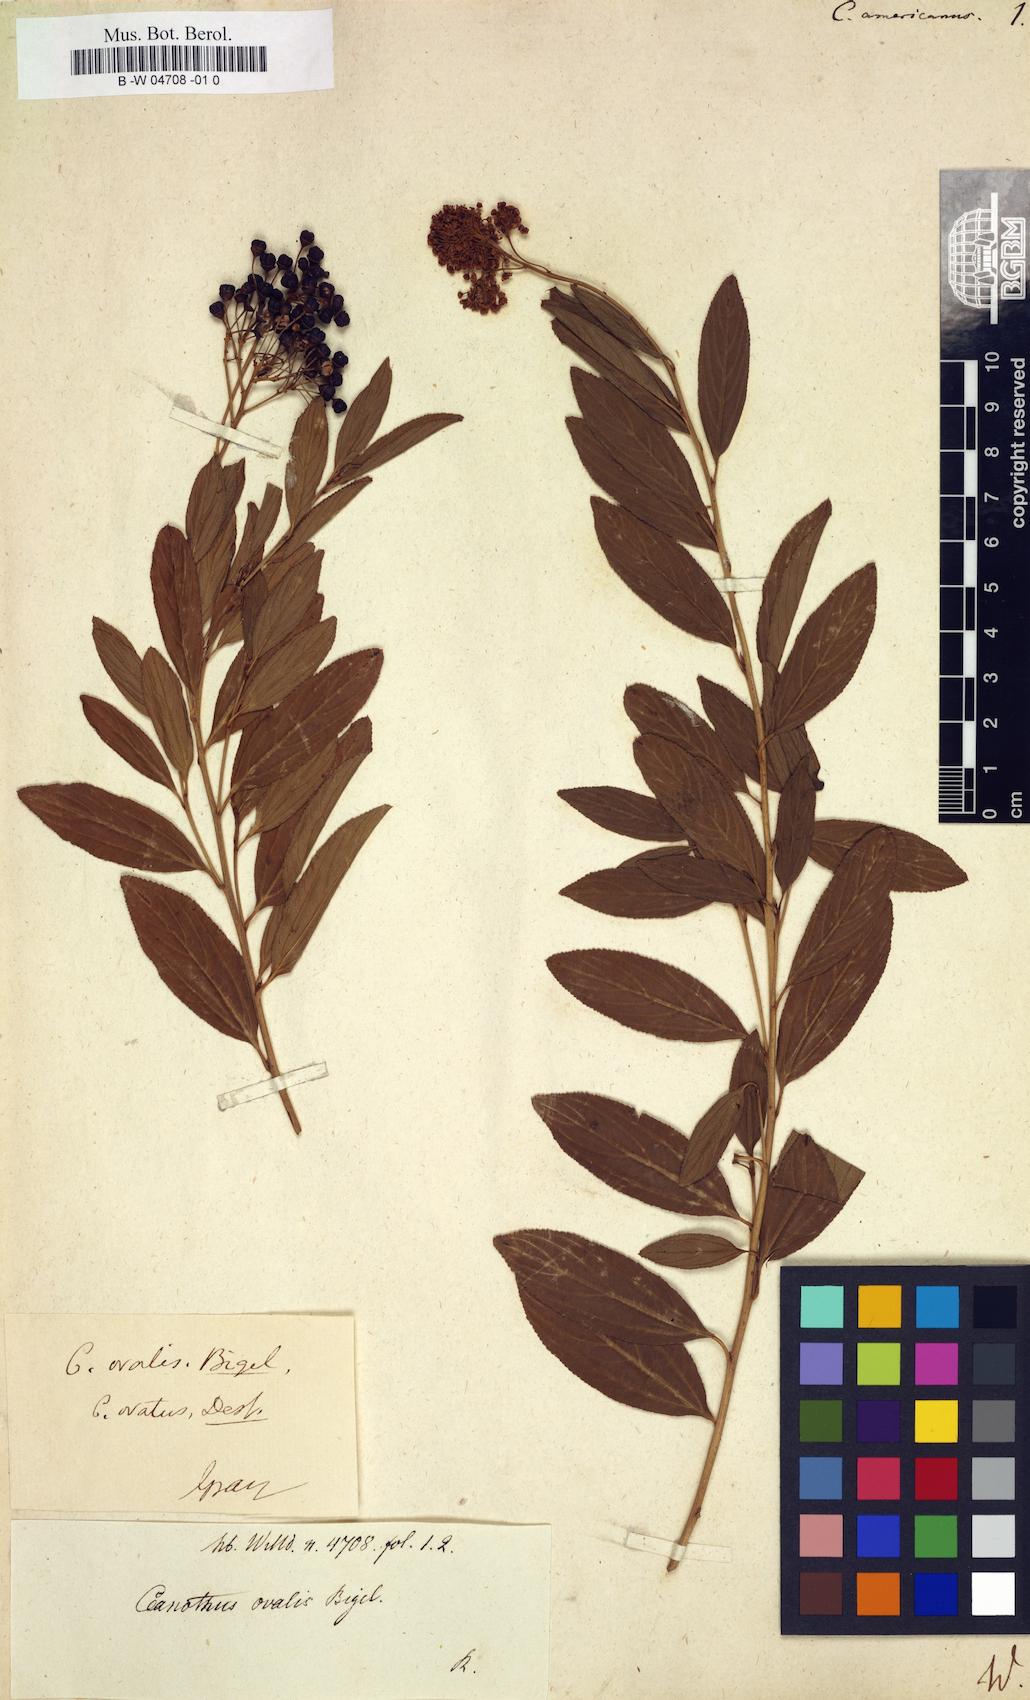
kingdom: Plantae
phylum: Tracheophyta
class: Magnoliopsida
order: Rosales
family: Rhamnaceae
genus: Ceanothus
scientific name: Ceanothus americanus
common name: Redroot
